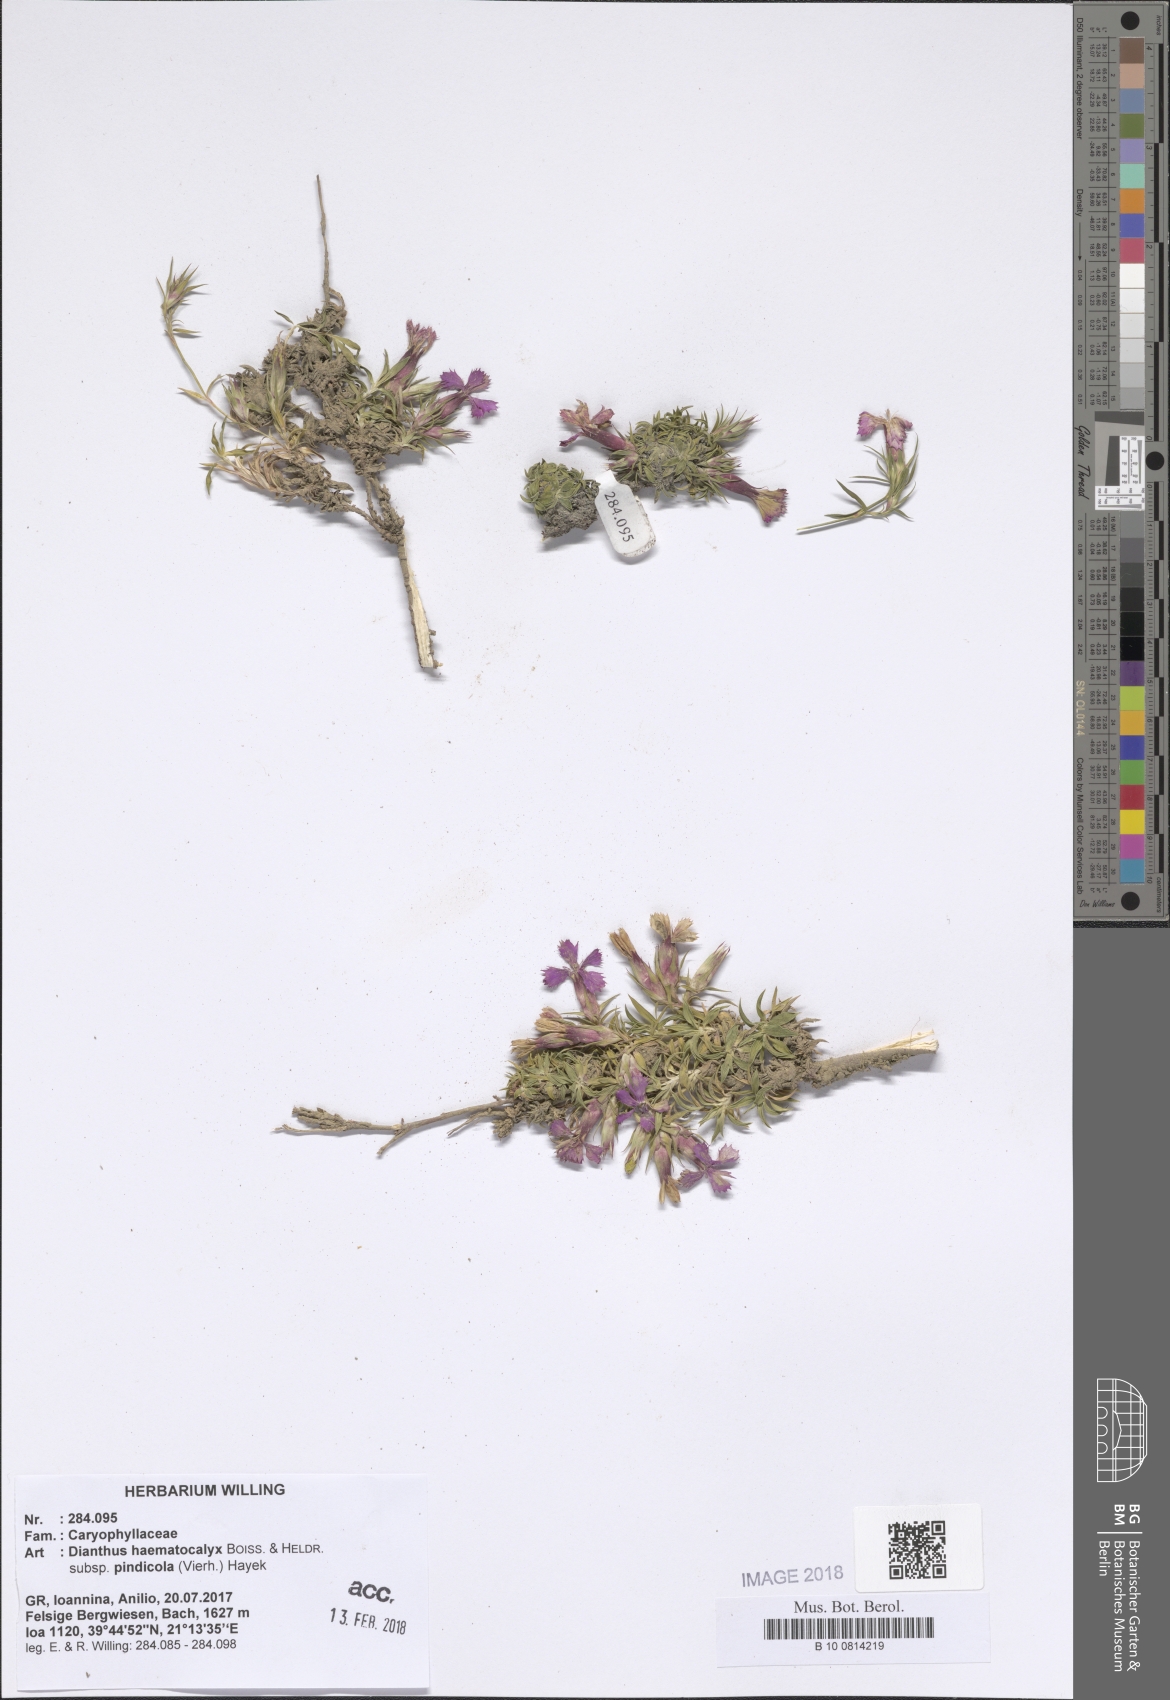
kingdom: Plantae
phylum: Tracheophyta
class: Magnoliopsida
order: Caryophyllales
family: Caryophyllaceae
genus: Dianthus
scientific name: Dianthus haematocalyx
